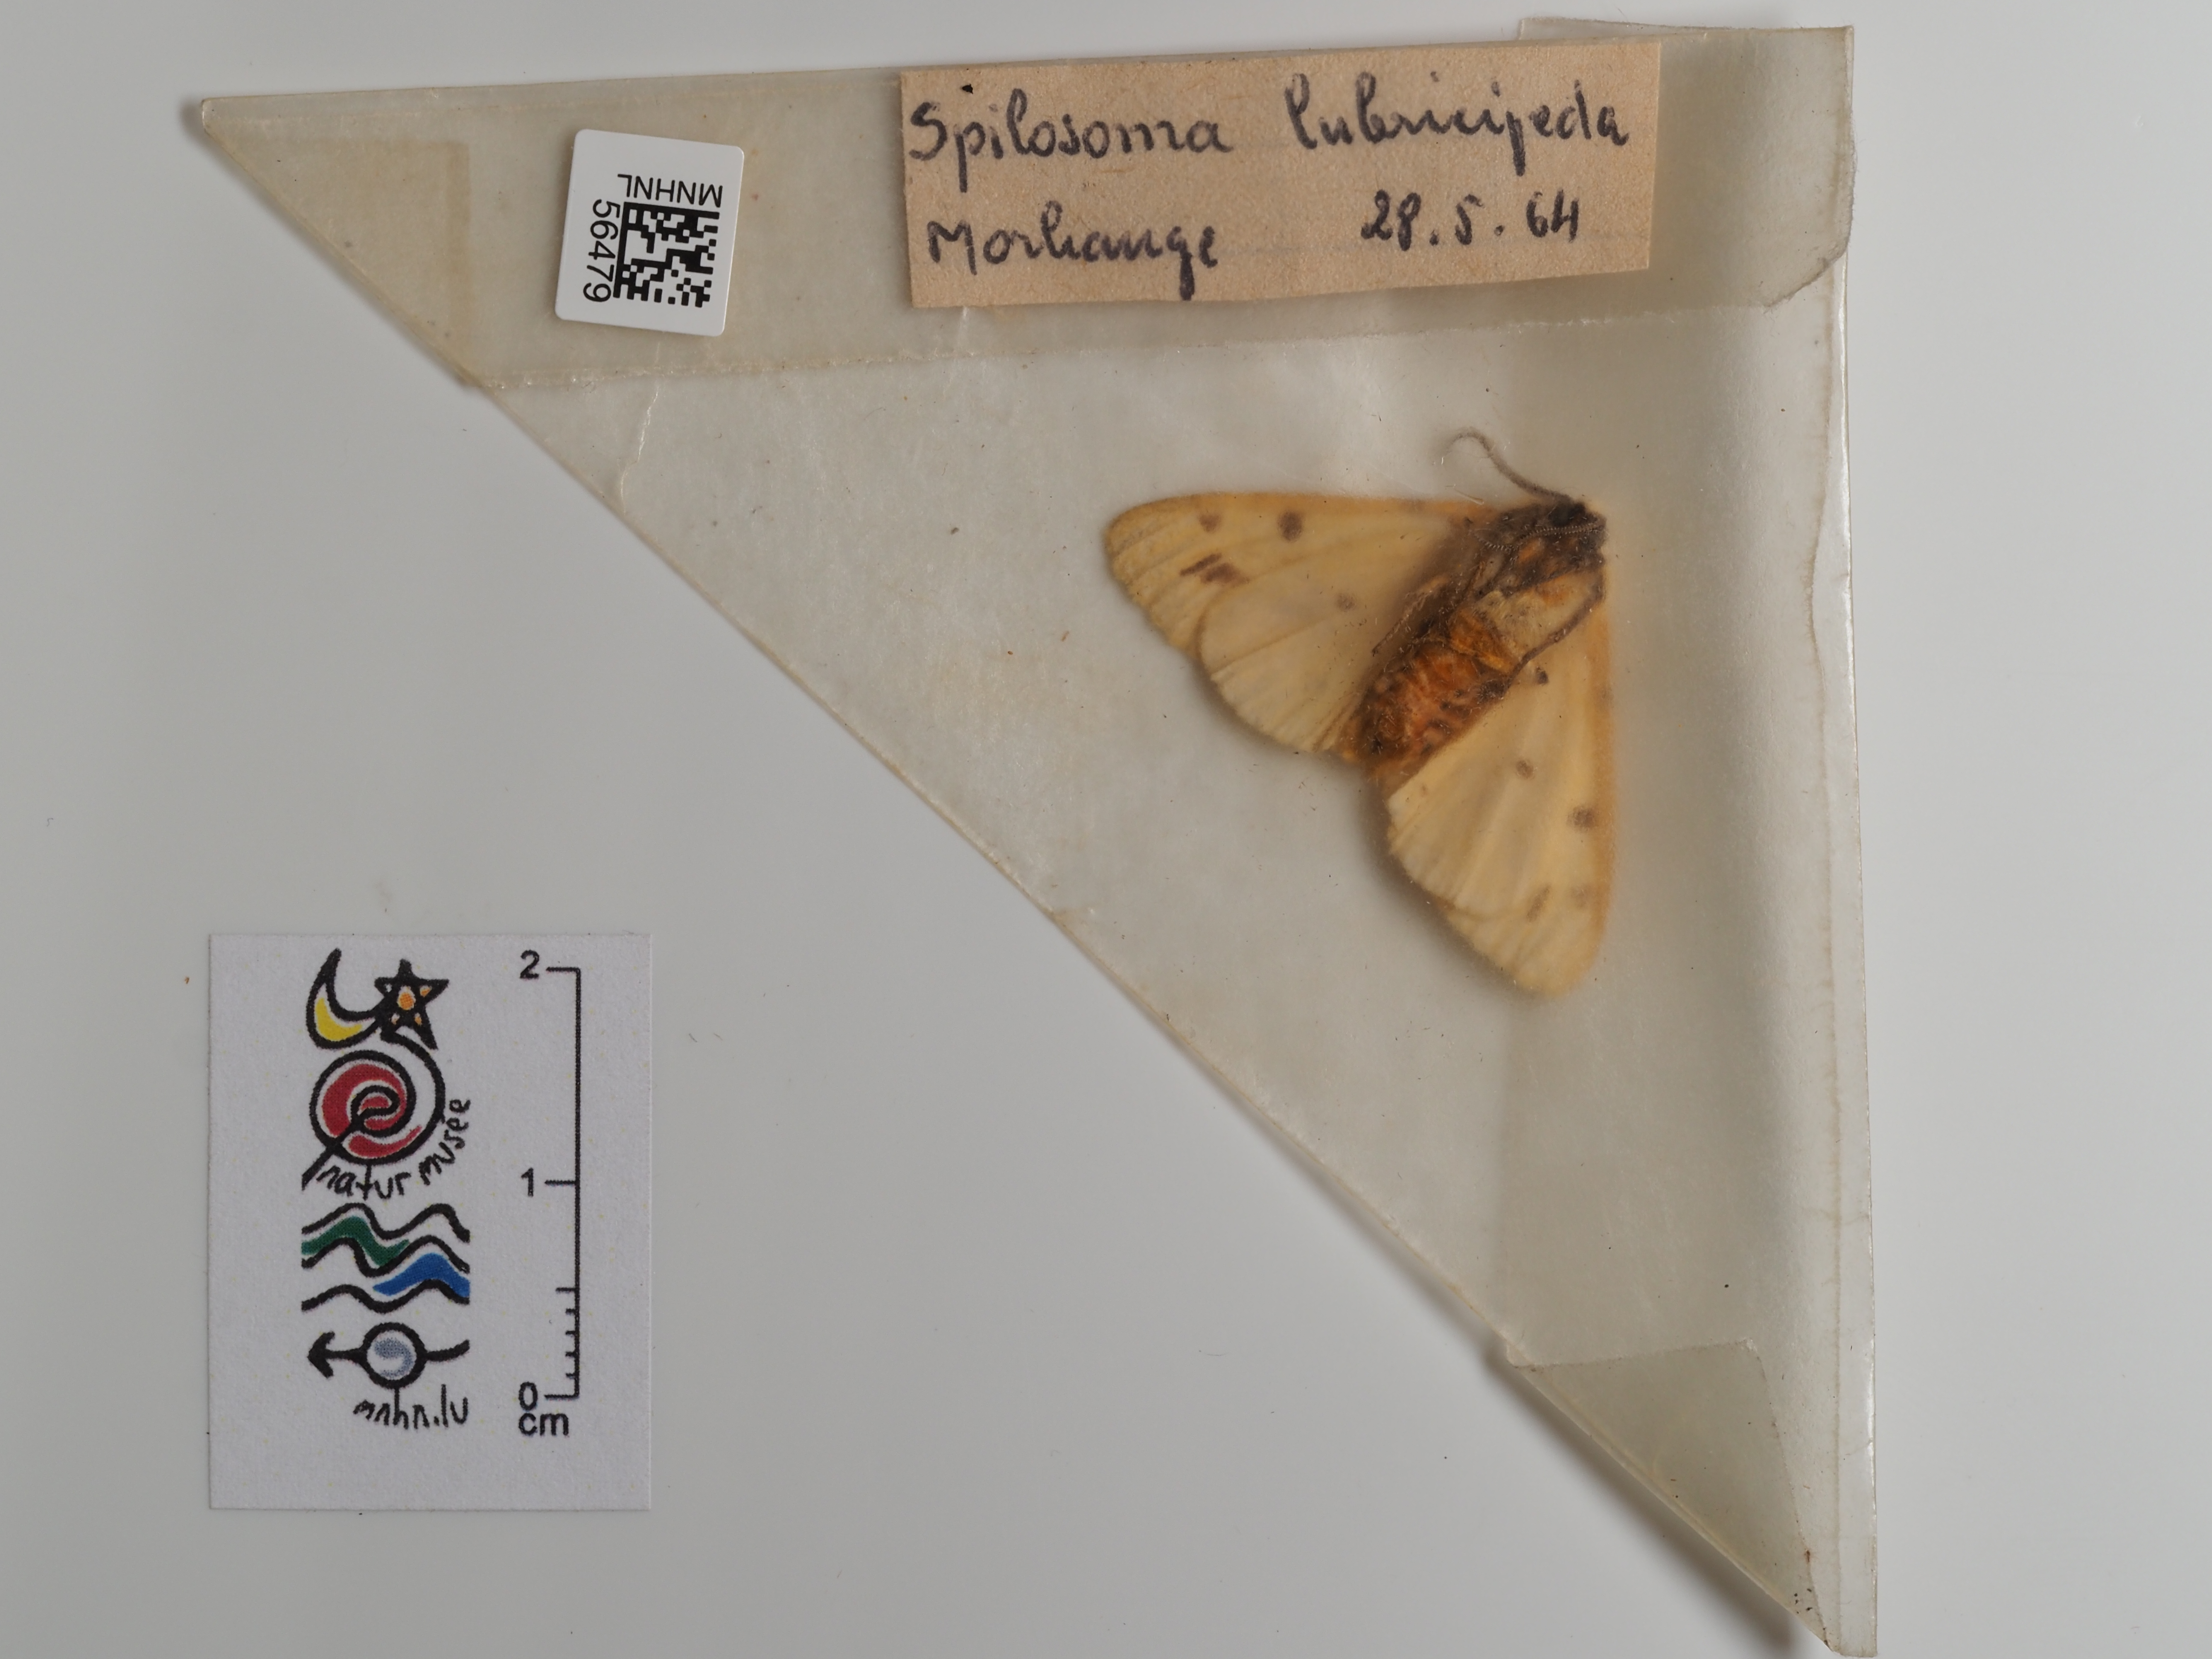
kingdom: Animalia
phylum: Arthropoda
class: Insecta
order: Lepidoptera
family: Erebidae
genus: Spilosoma
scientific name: Spilosoma lubricipeda
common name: White ermine
